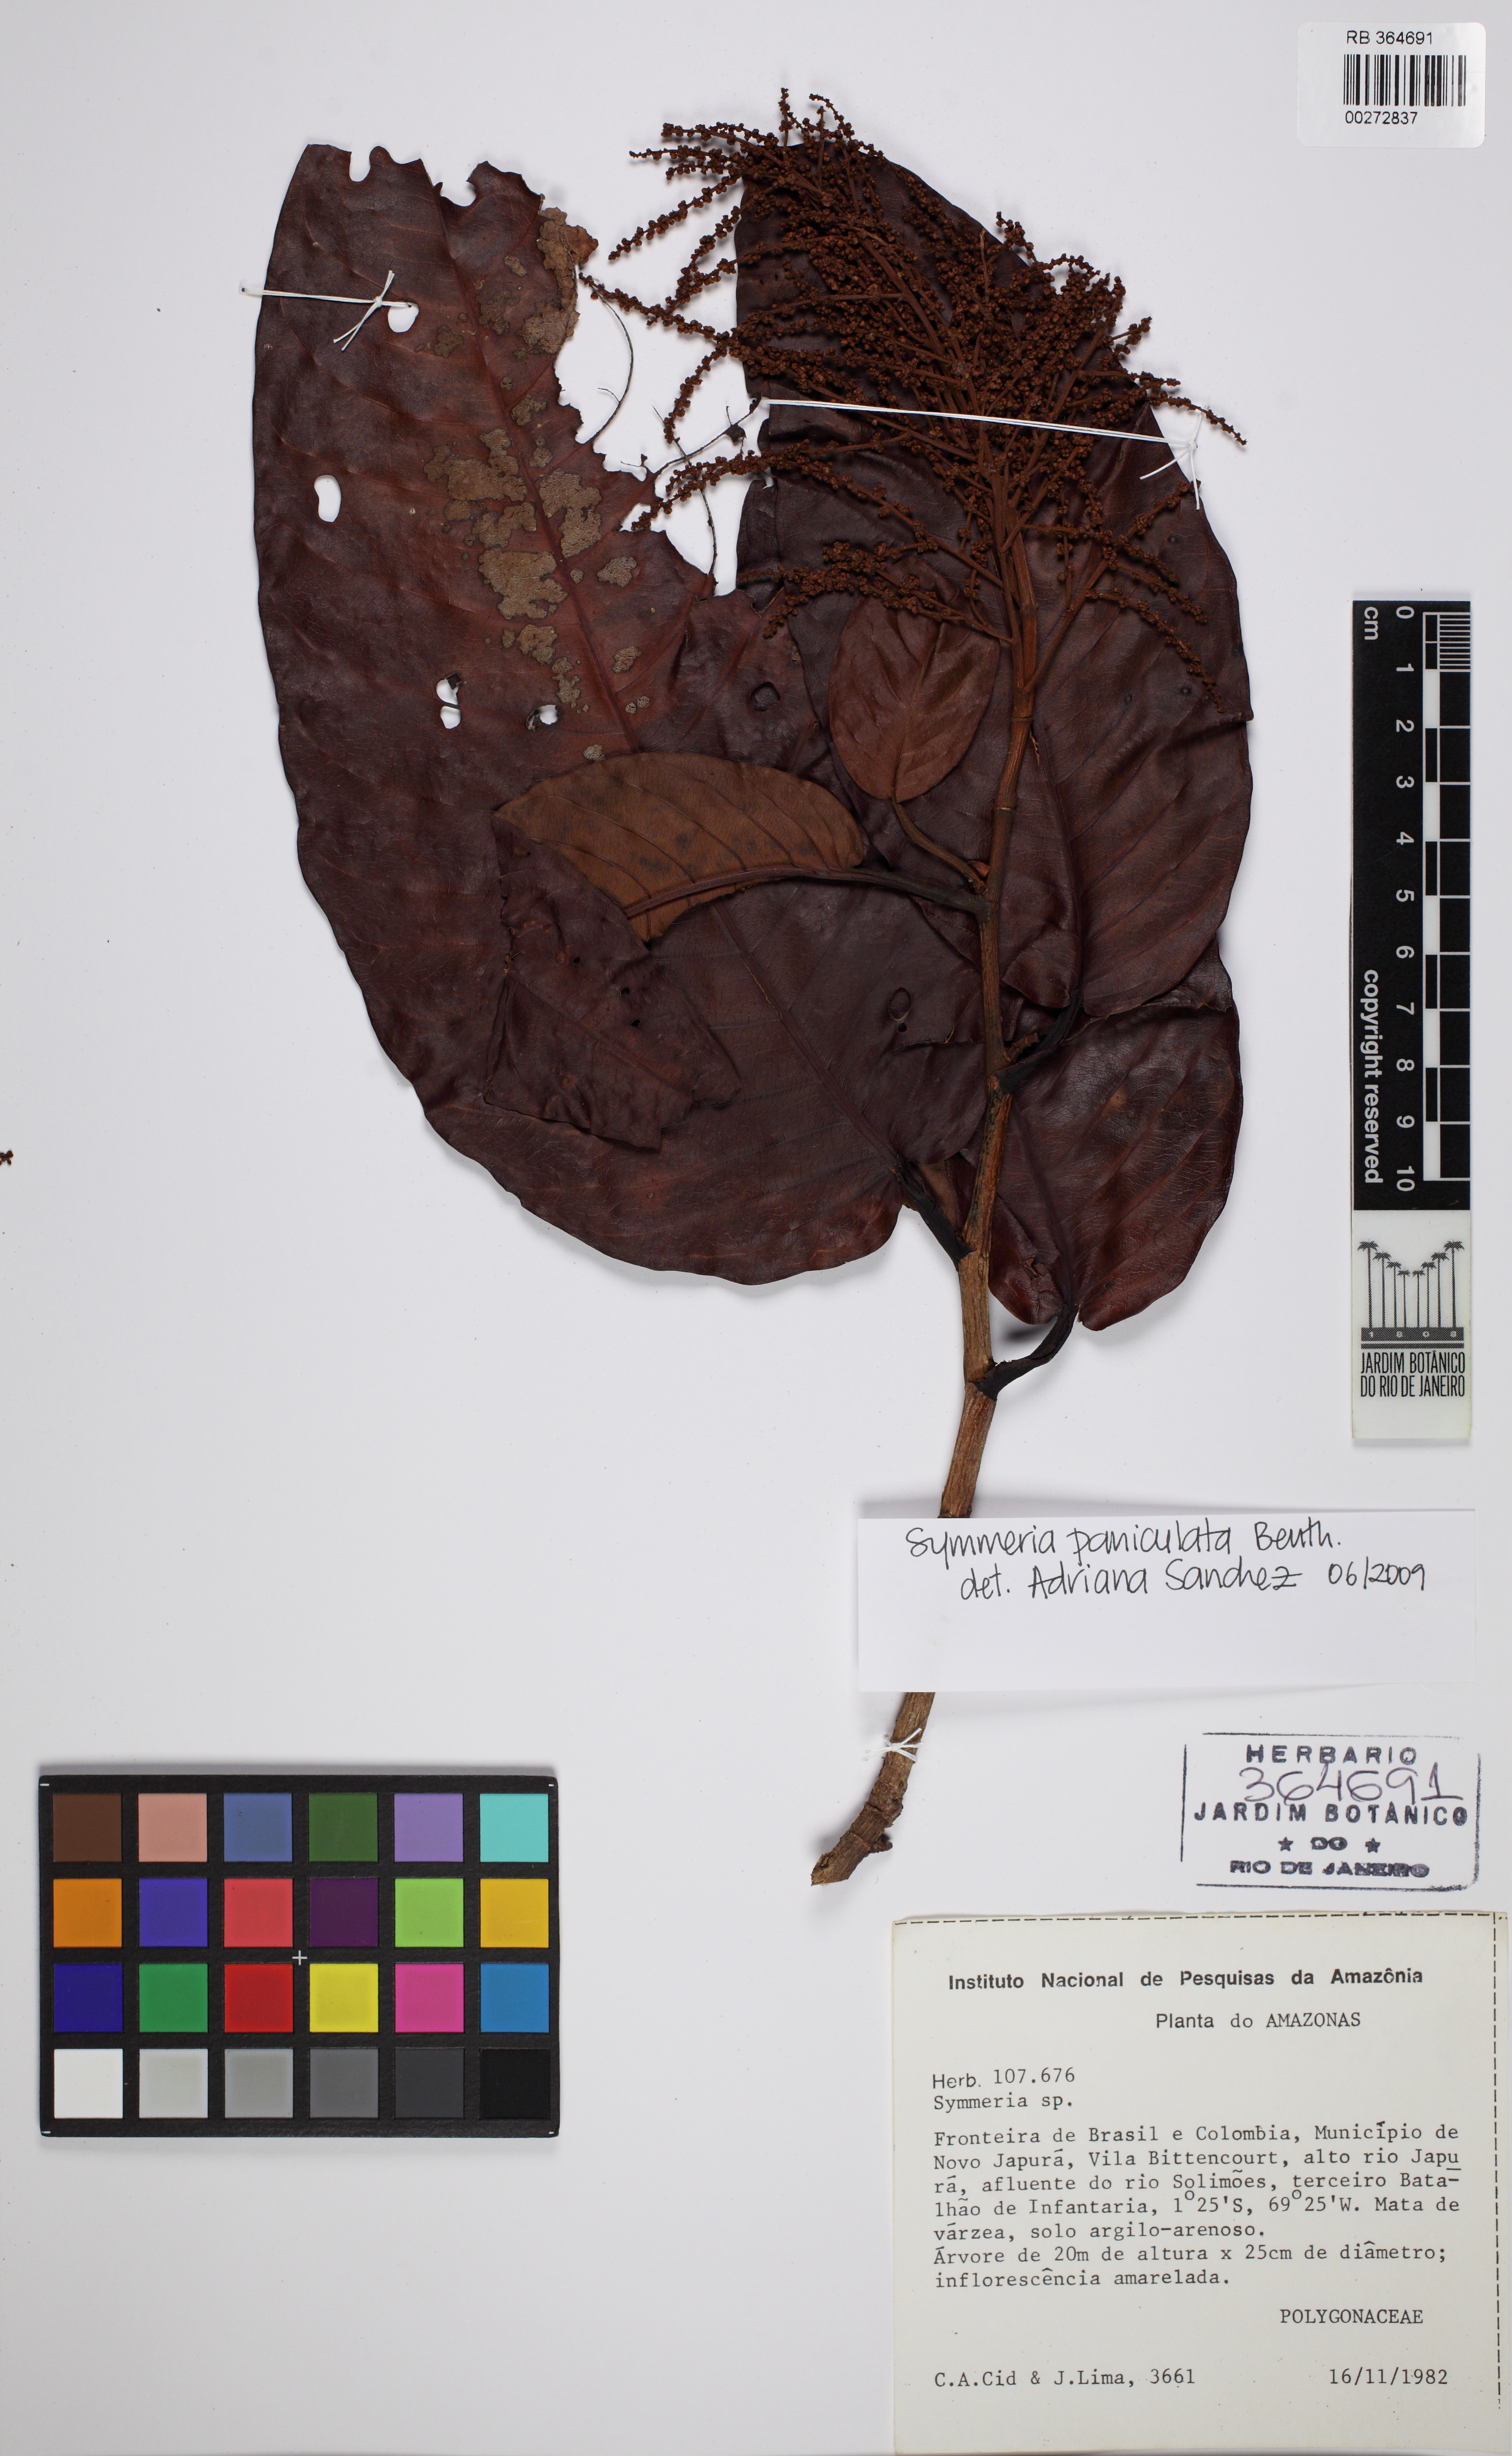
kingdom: Plantae
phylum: Tracheophyta
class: Magnoliopsida
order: Caryophyllales
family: Polygonaceae
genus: Symmeria
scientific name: Symmeria paniculata
